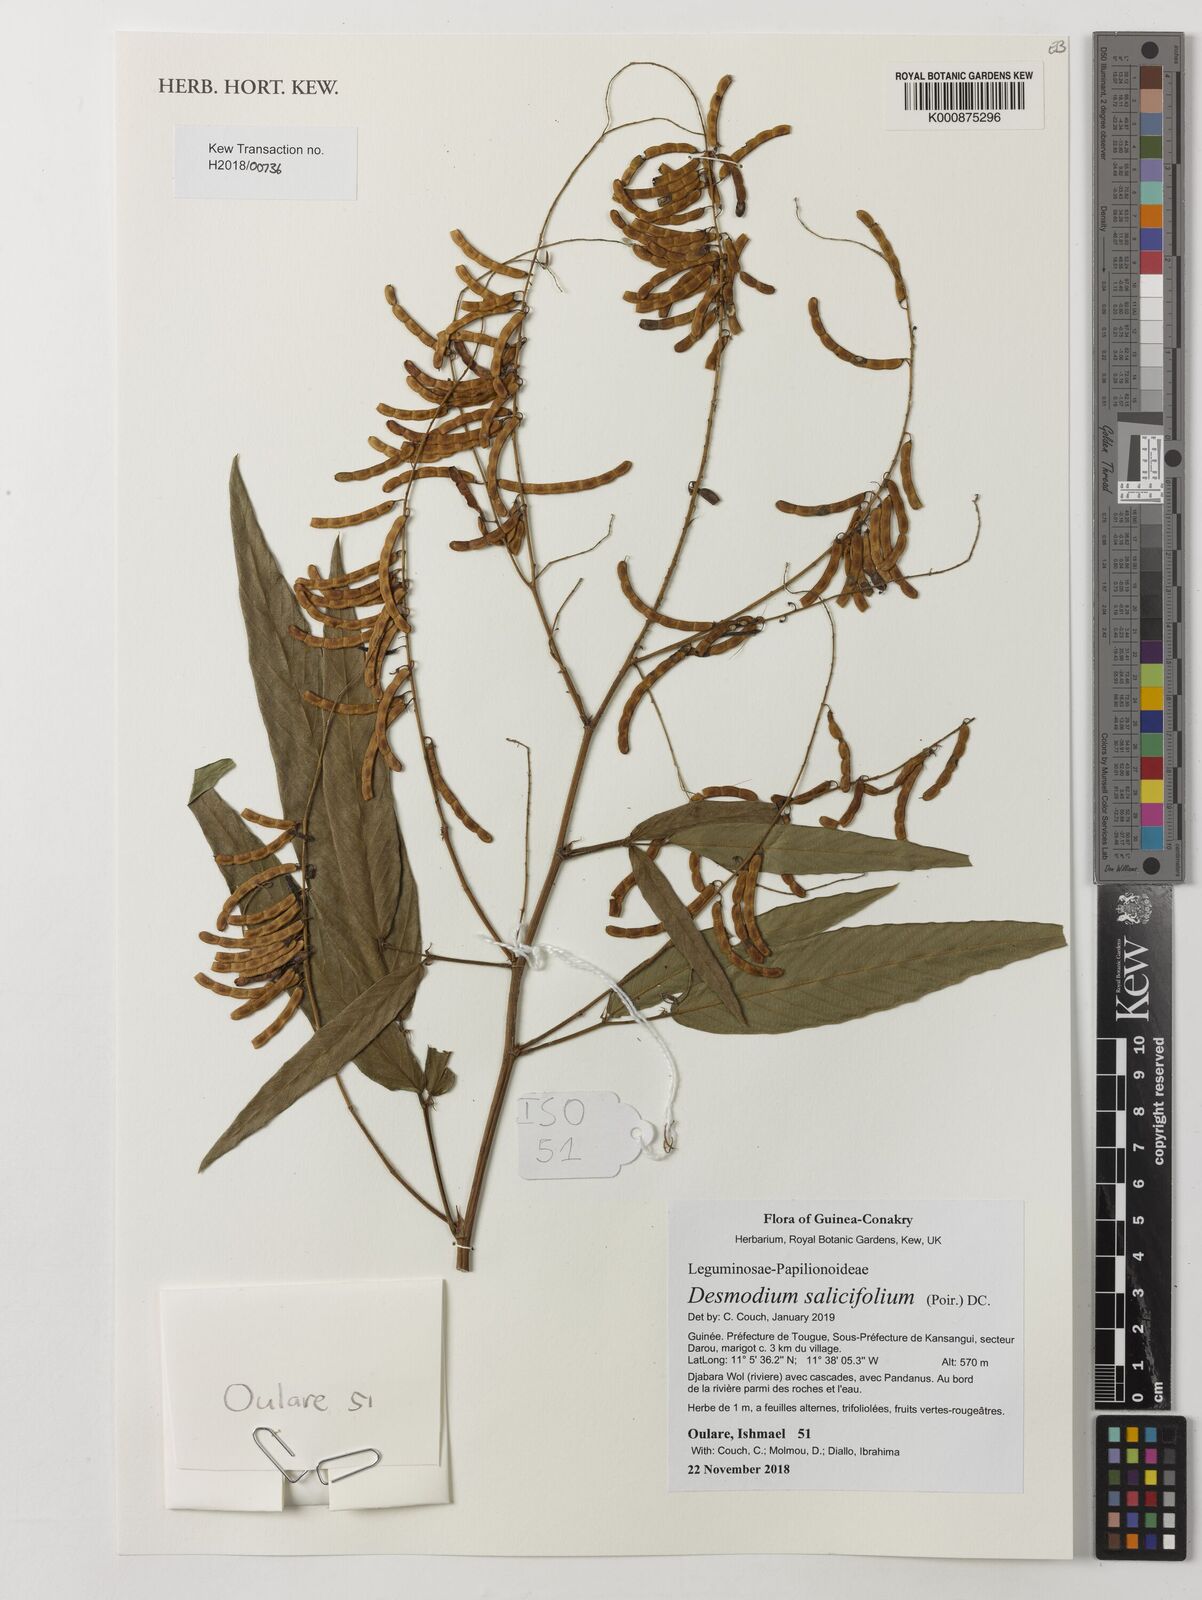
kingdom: Plantae
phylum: Tracheophyta
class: Magnoliopsida
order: Fabales
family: Fabaceae
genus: Pleurolobus
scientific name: Pleurolobus salicifolius
